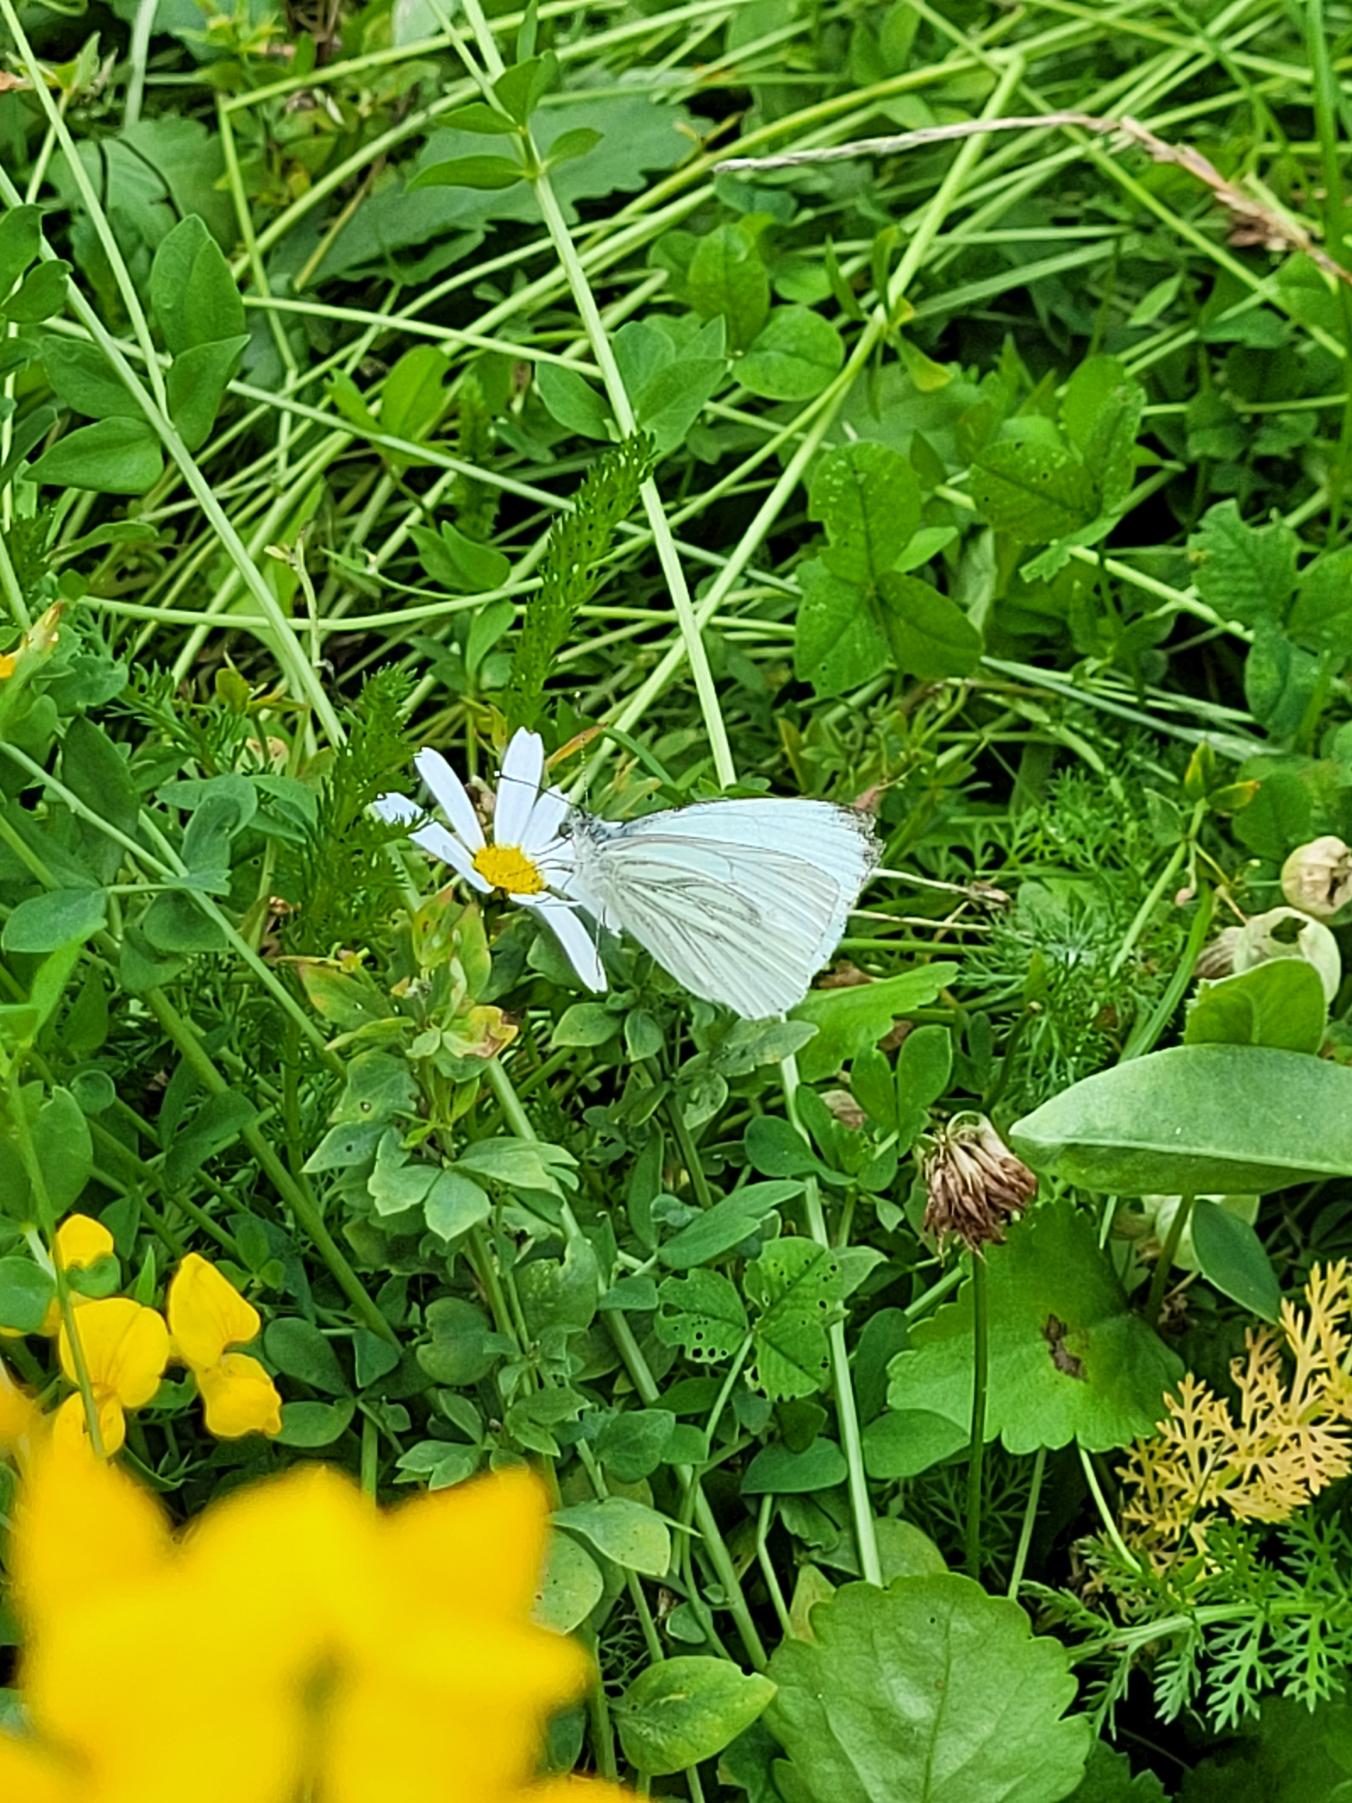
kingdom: Animalia
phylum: Arthropoda
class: Insecta
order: Lepidoptera
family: Pieridae
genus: Pieris
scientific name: Pieris napi
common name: Grønåret kålsommerfugl
